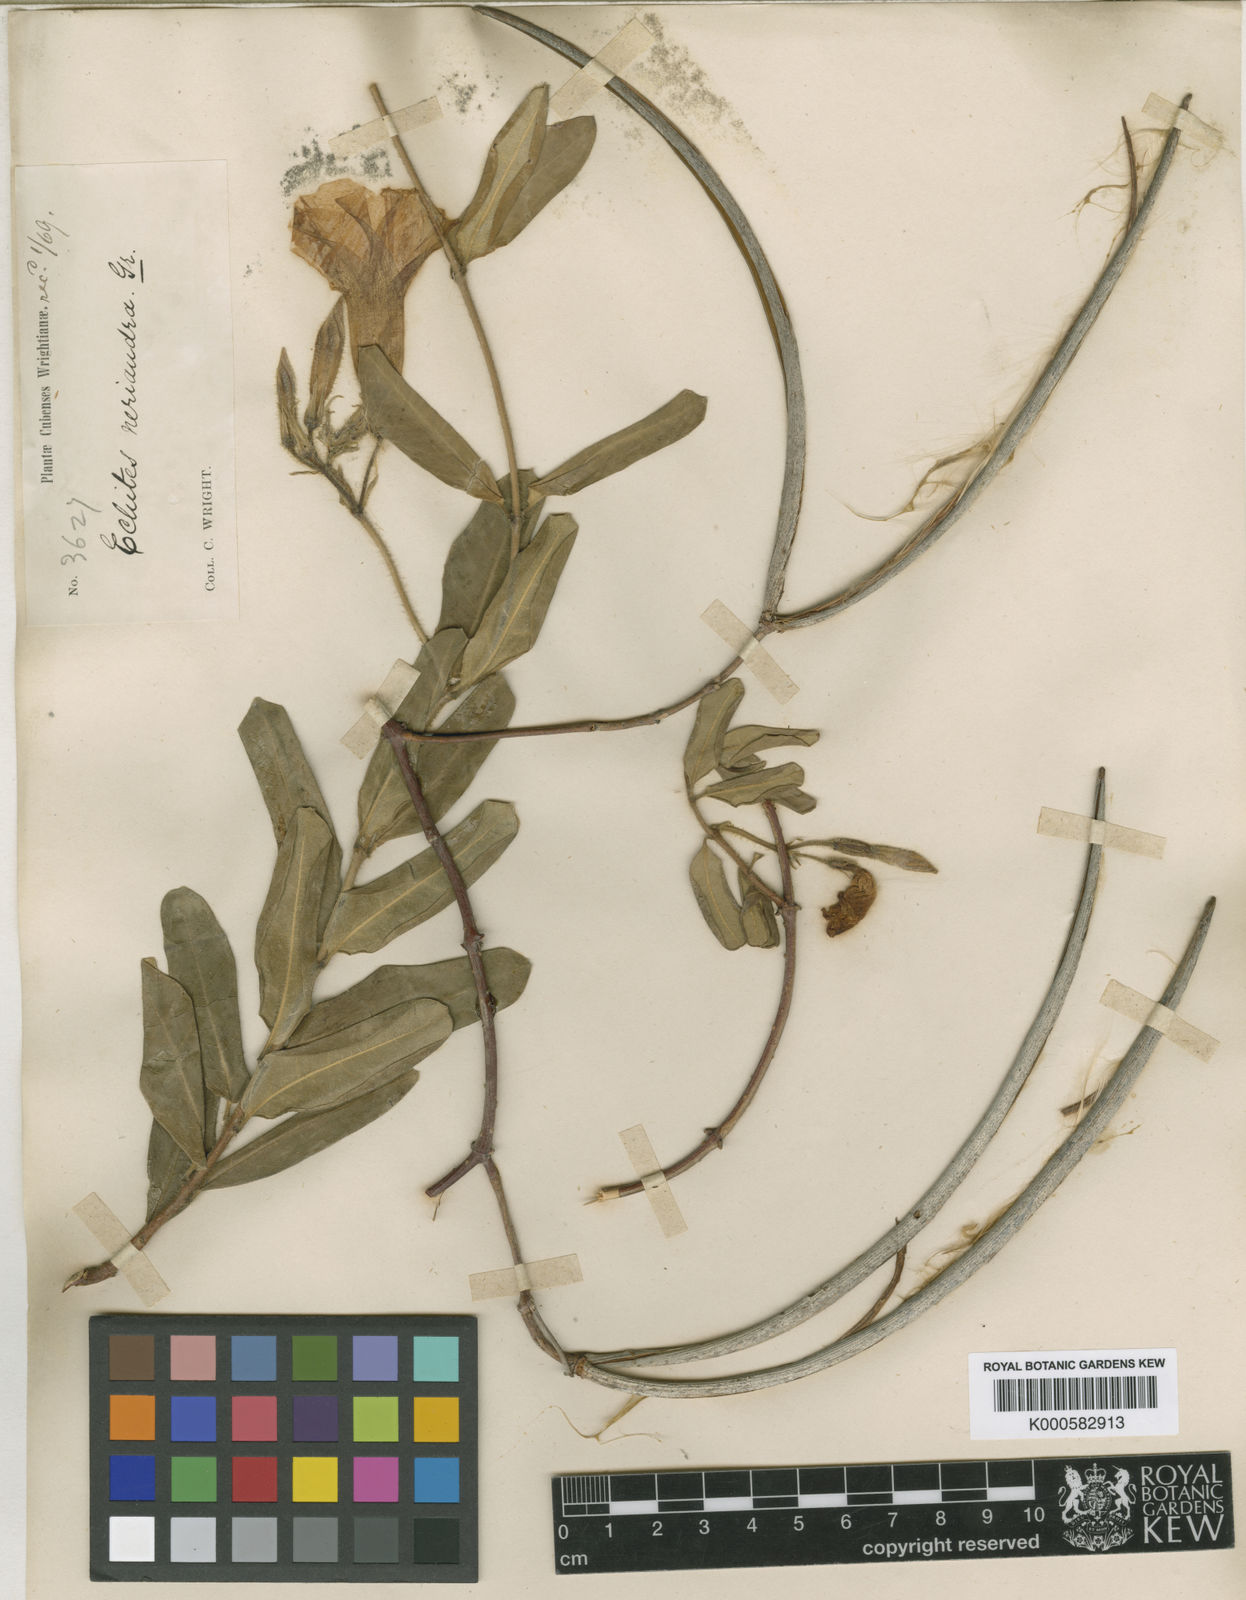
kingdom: Plantae
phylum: Tracheophyta
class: Magnoliopsida
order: Gentianales
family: Apocynaceae
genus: Pentalinon
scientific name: Pentalinon luteum
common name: Licebush
